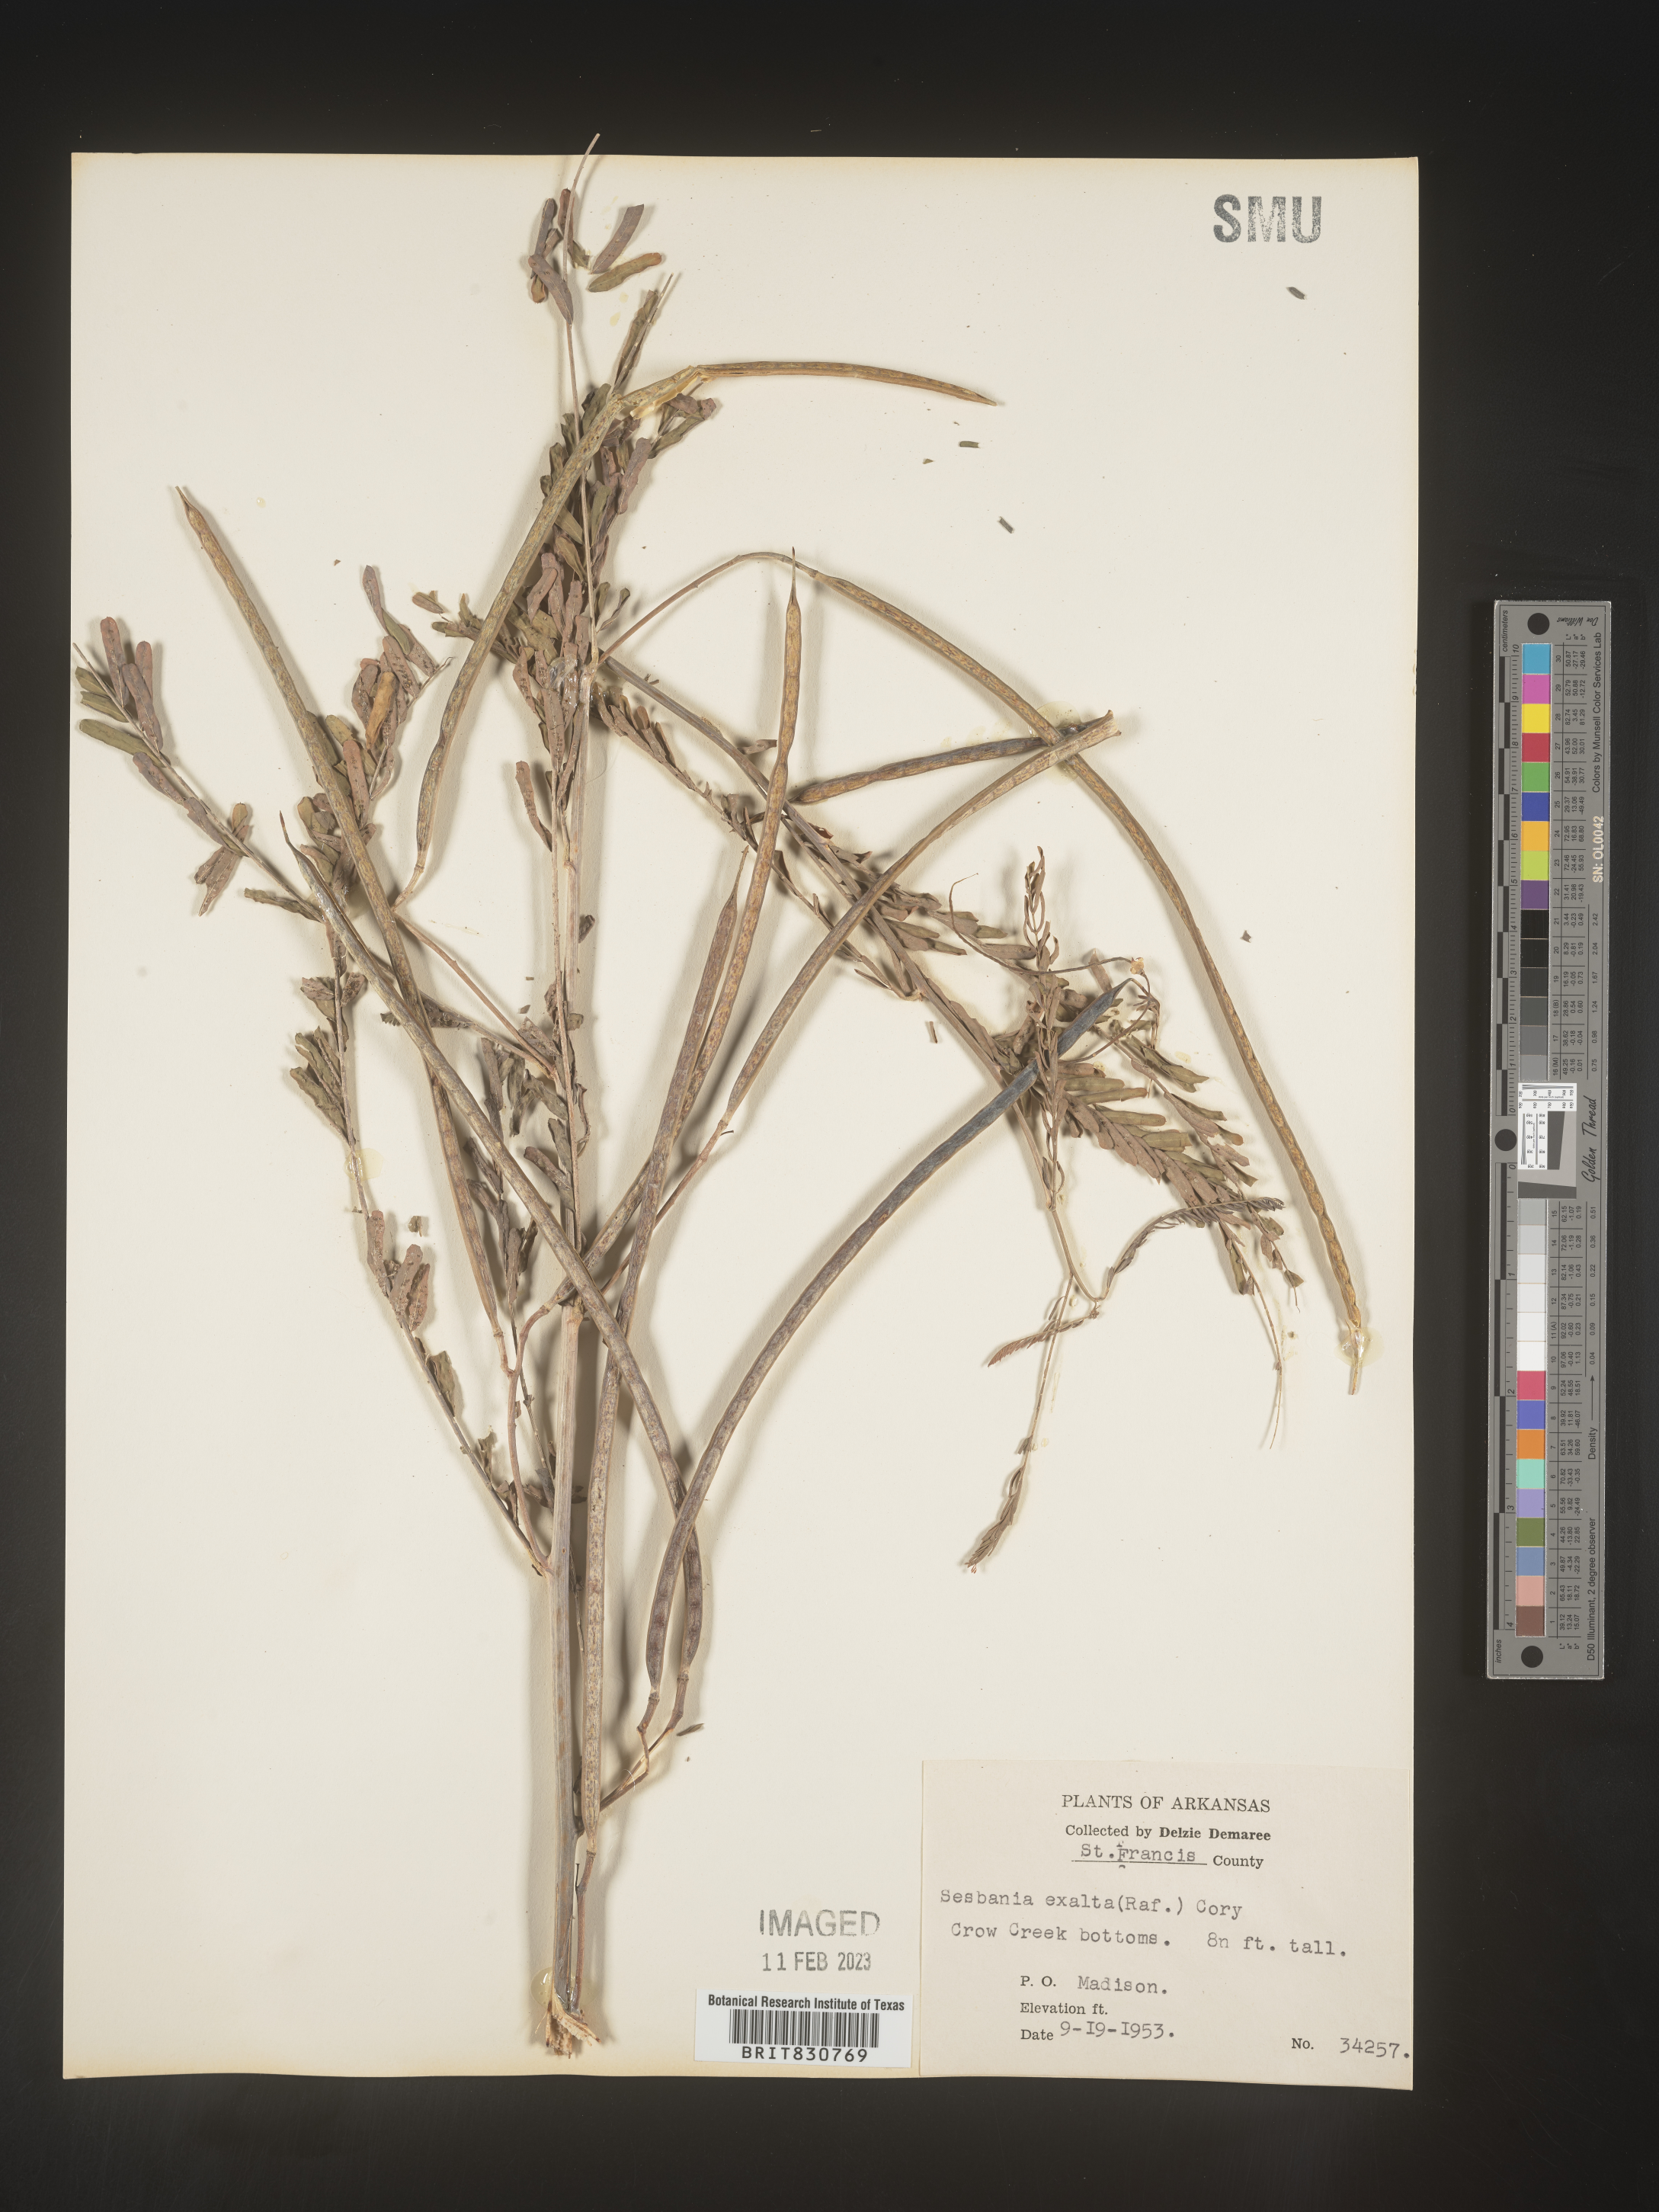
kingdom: Plantae
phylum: Tracheophyta
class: Magnoliopsida
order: Fabales
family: Fabaceae
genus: Sesbania
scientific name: Sesbania vesicaria
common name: Bagpod
